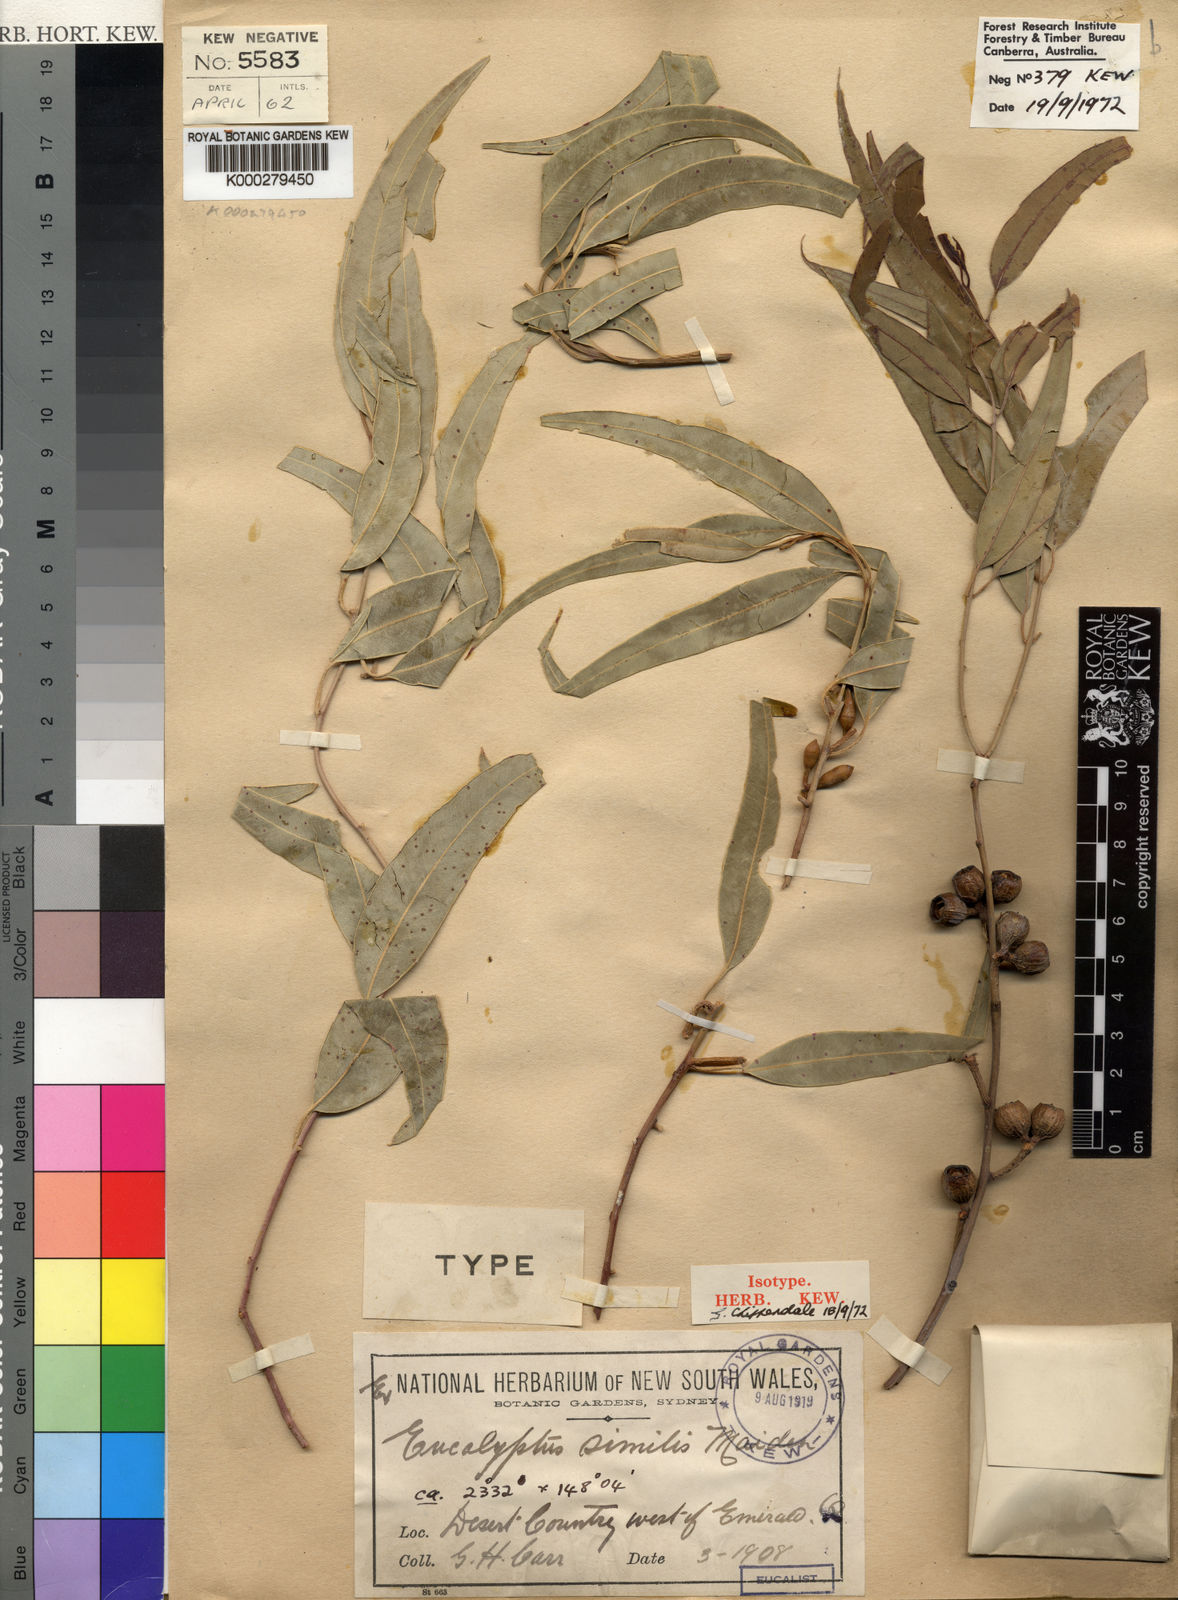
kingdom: Plantae
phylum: Tracheophyta
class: Magnoliopsida
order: Myrtales
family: Myrtaceae
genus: Eucalyptus
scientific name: Eucalyptus similis
